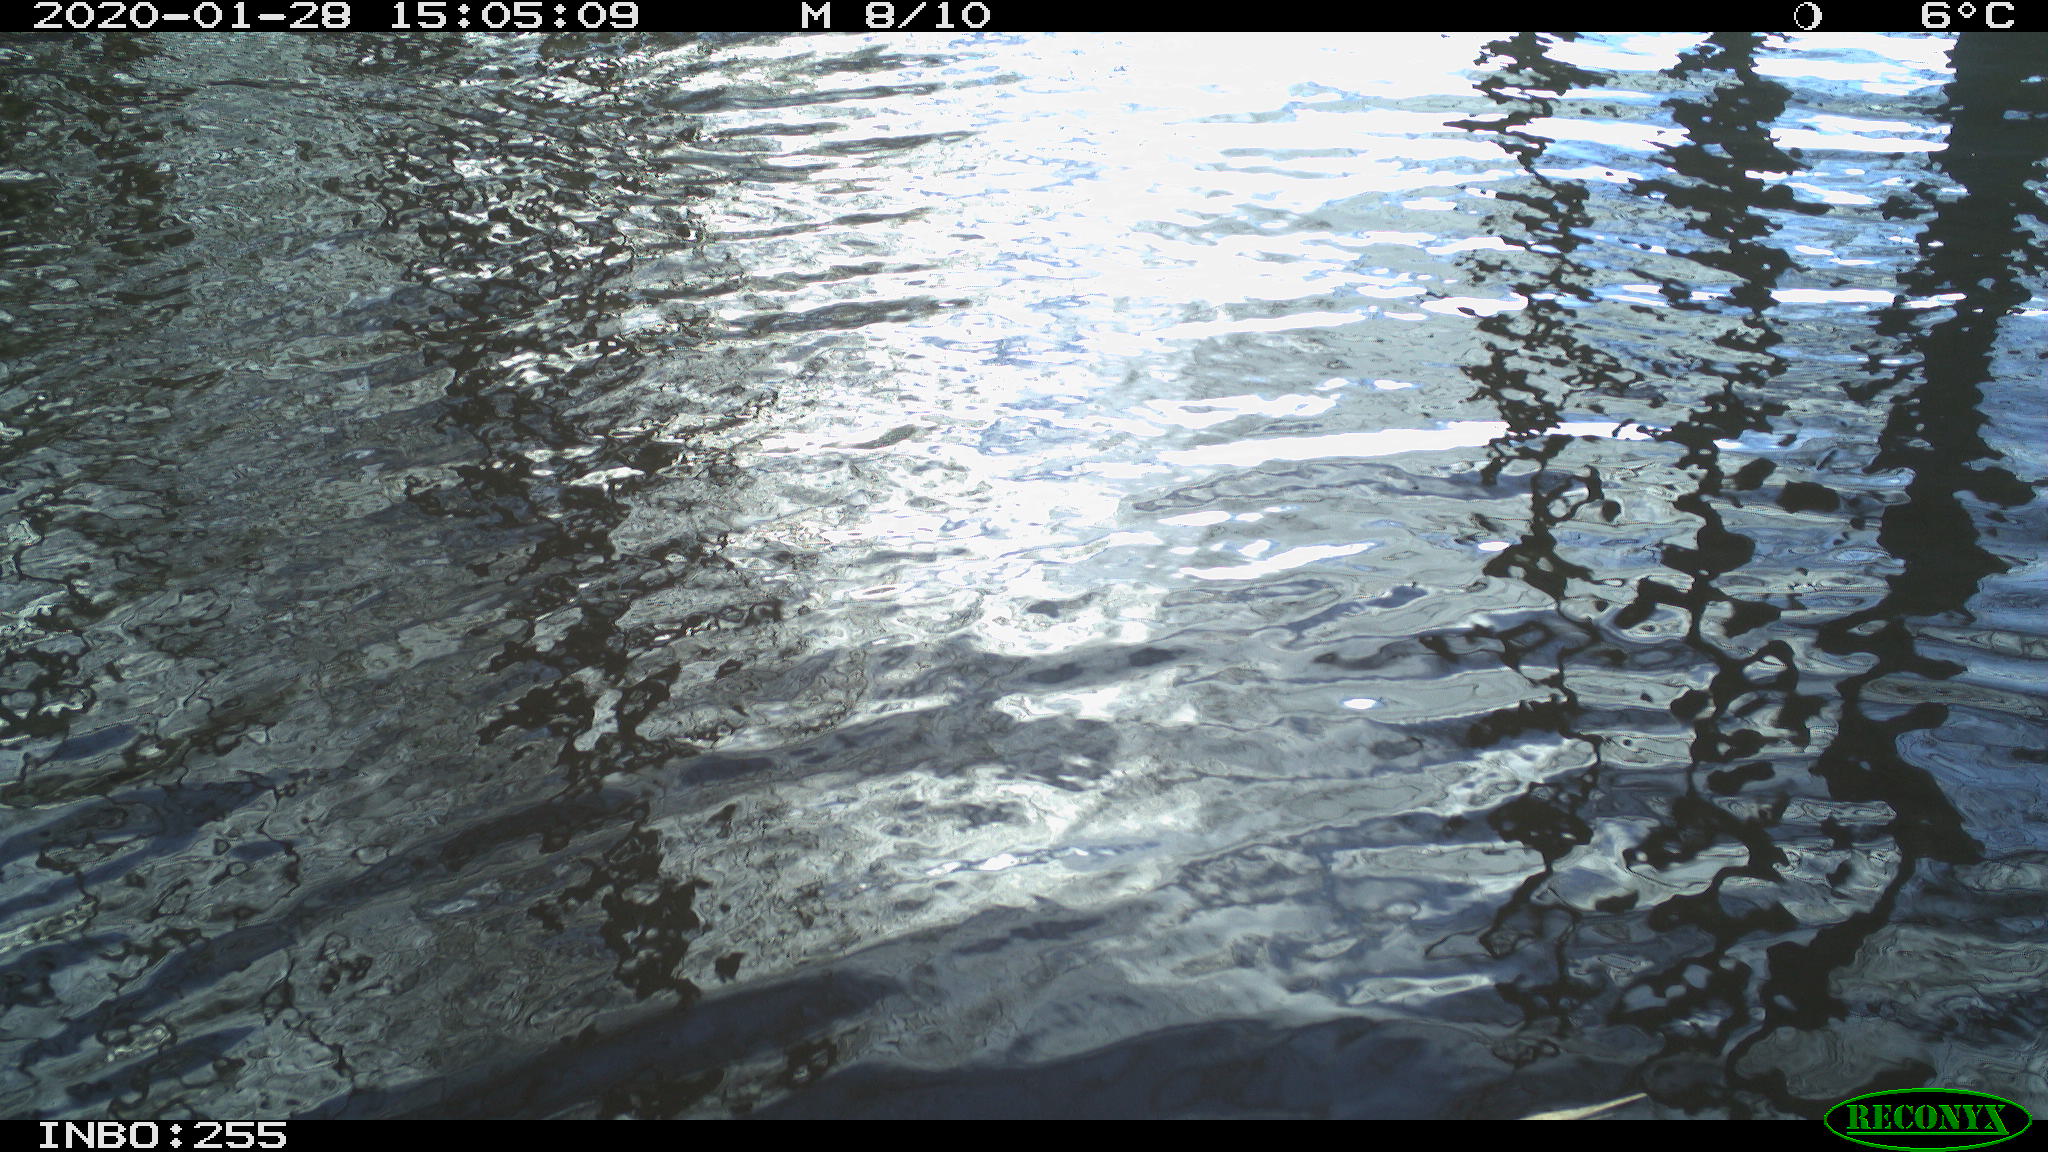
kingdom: Animalia
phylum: Chordata
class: Aves
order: Gruiformes
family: Rallidae
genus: Gallinula
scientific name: Gallinula chloropus
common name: Common moorhen
